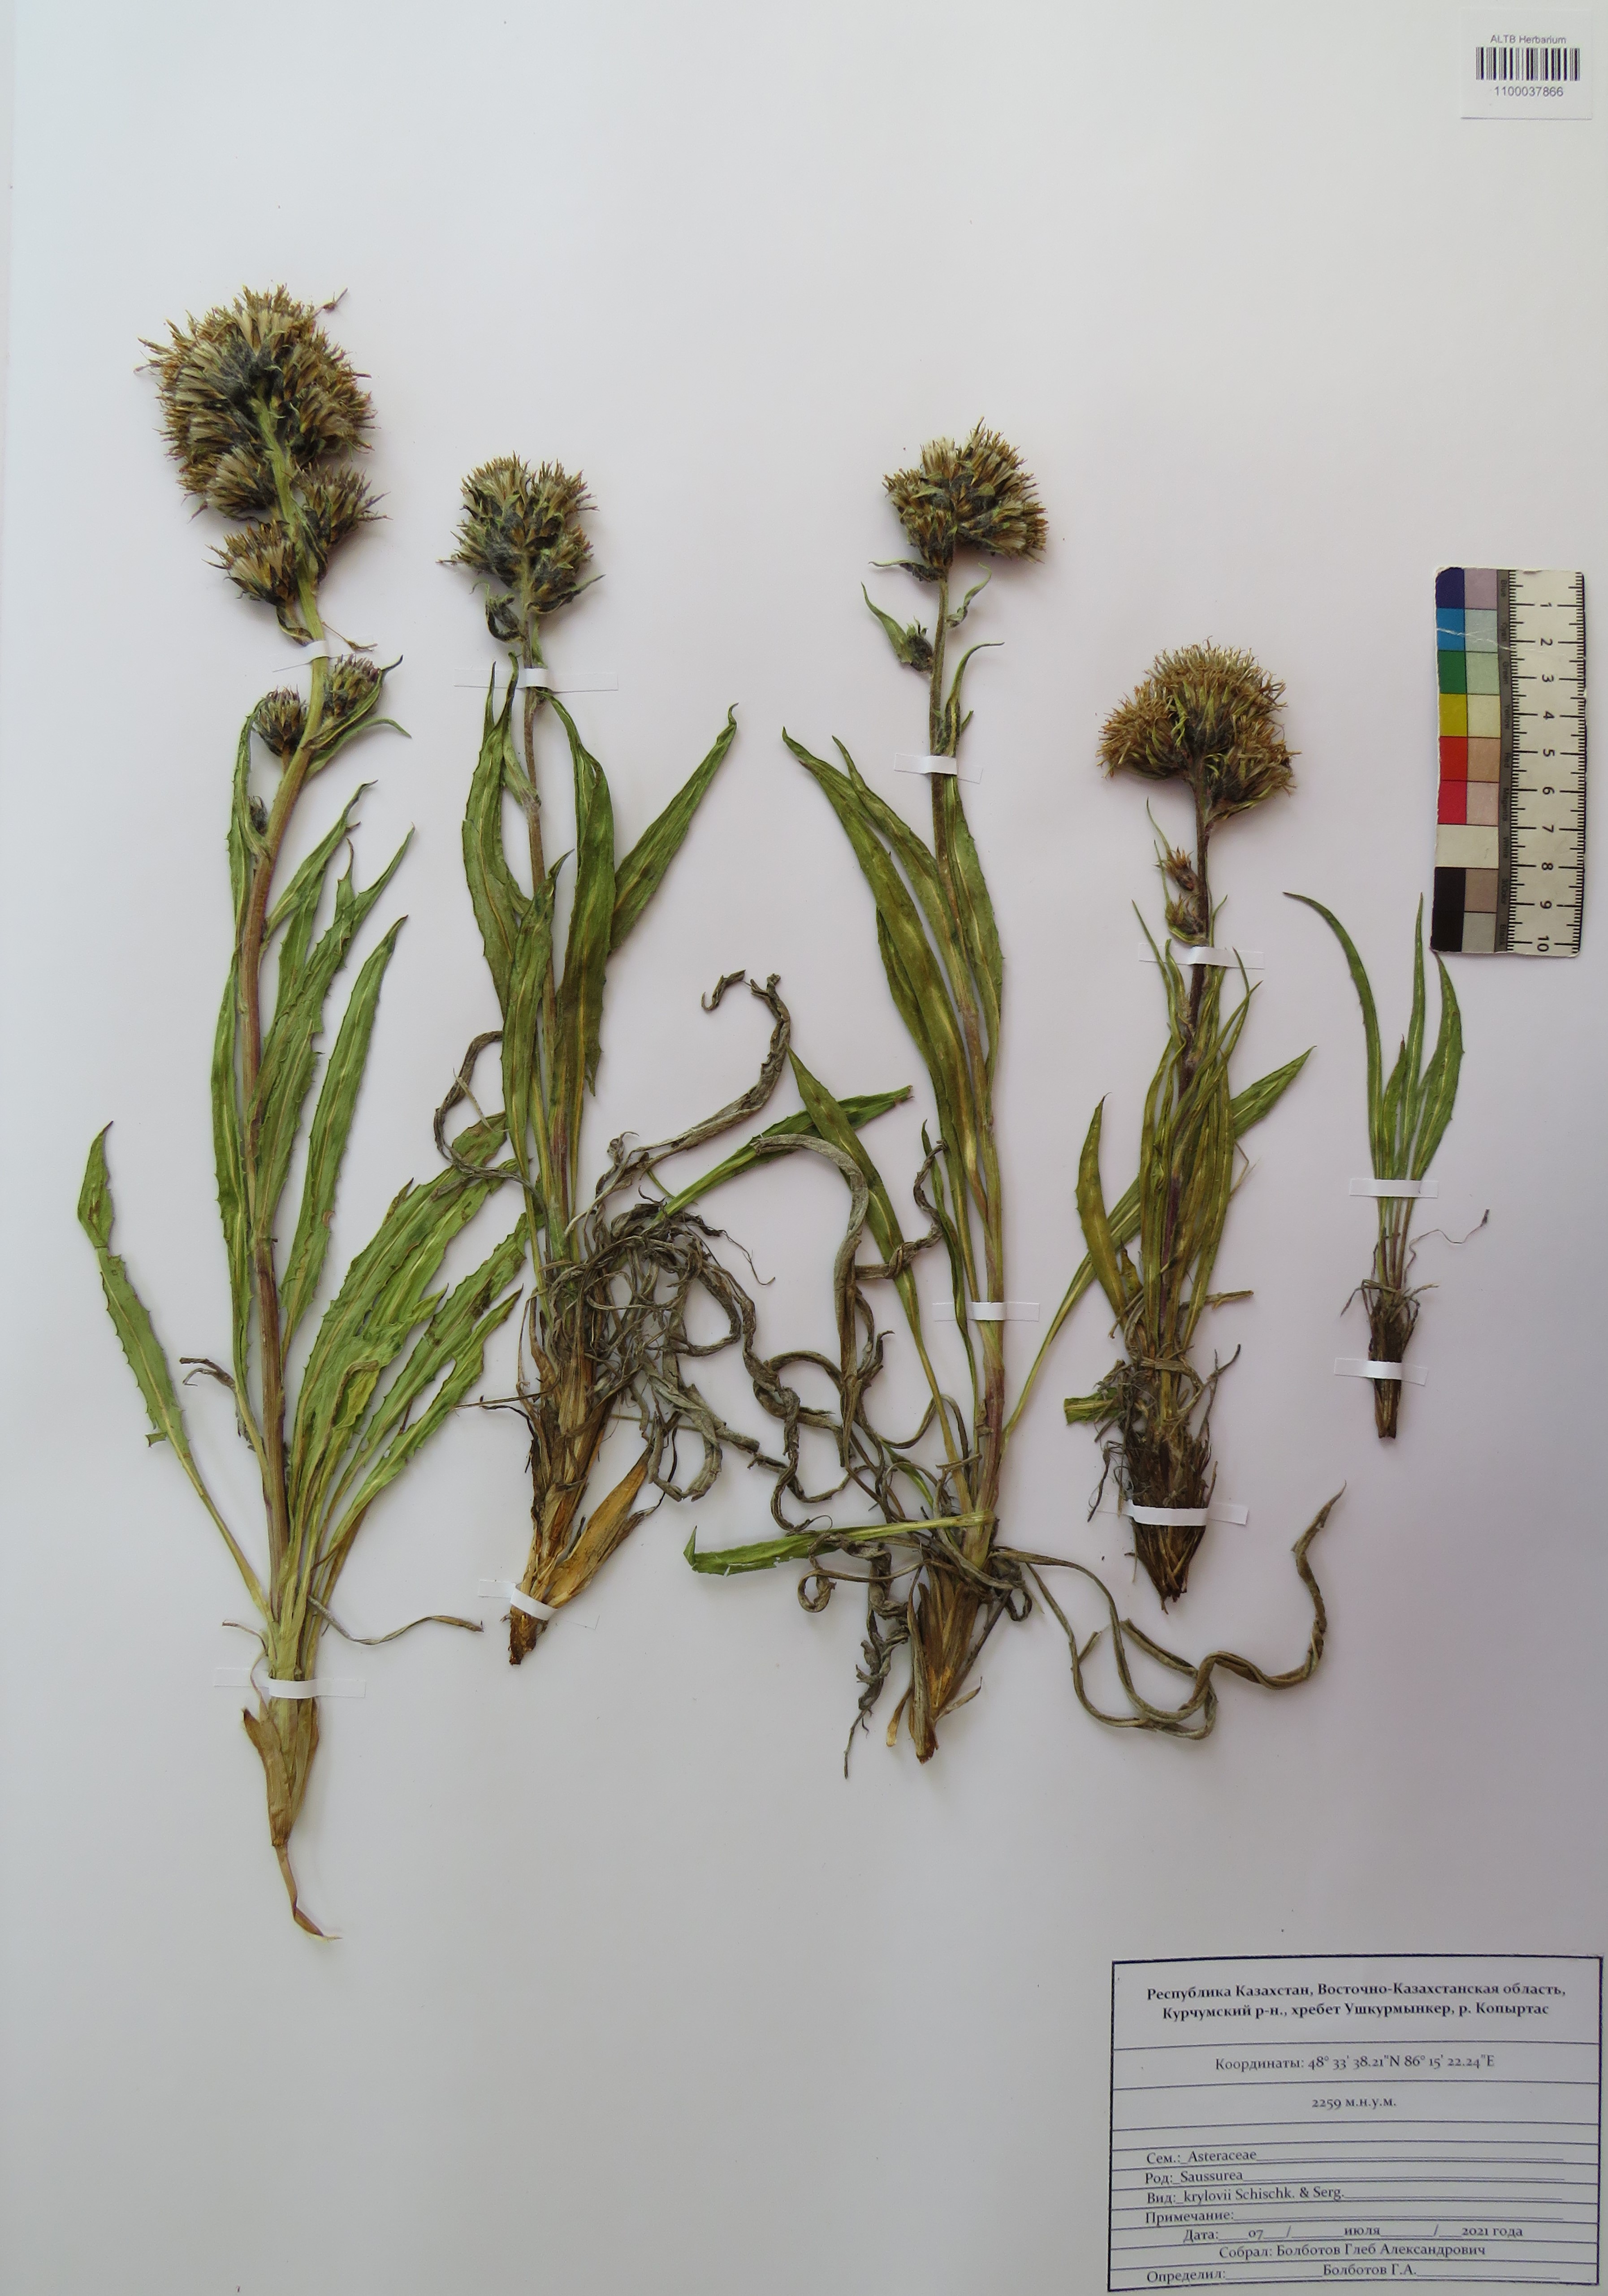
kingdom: Plantae
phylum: Tracheophyta
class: Magnoliopsida
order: Asterales
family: Asteraceae
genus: Saussurea
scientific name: Saussurea krylovii
